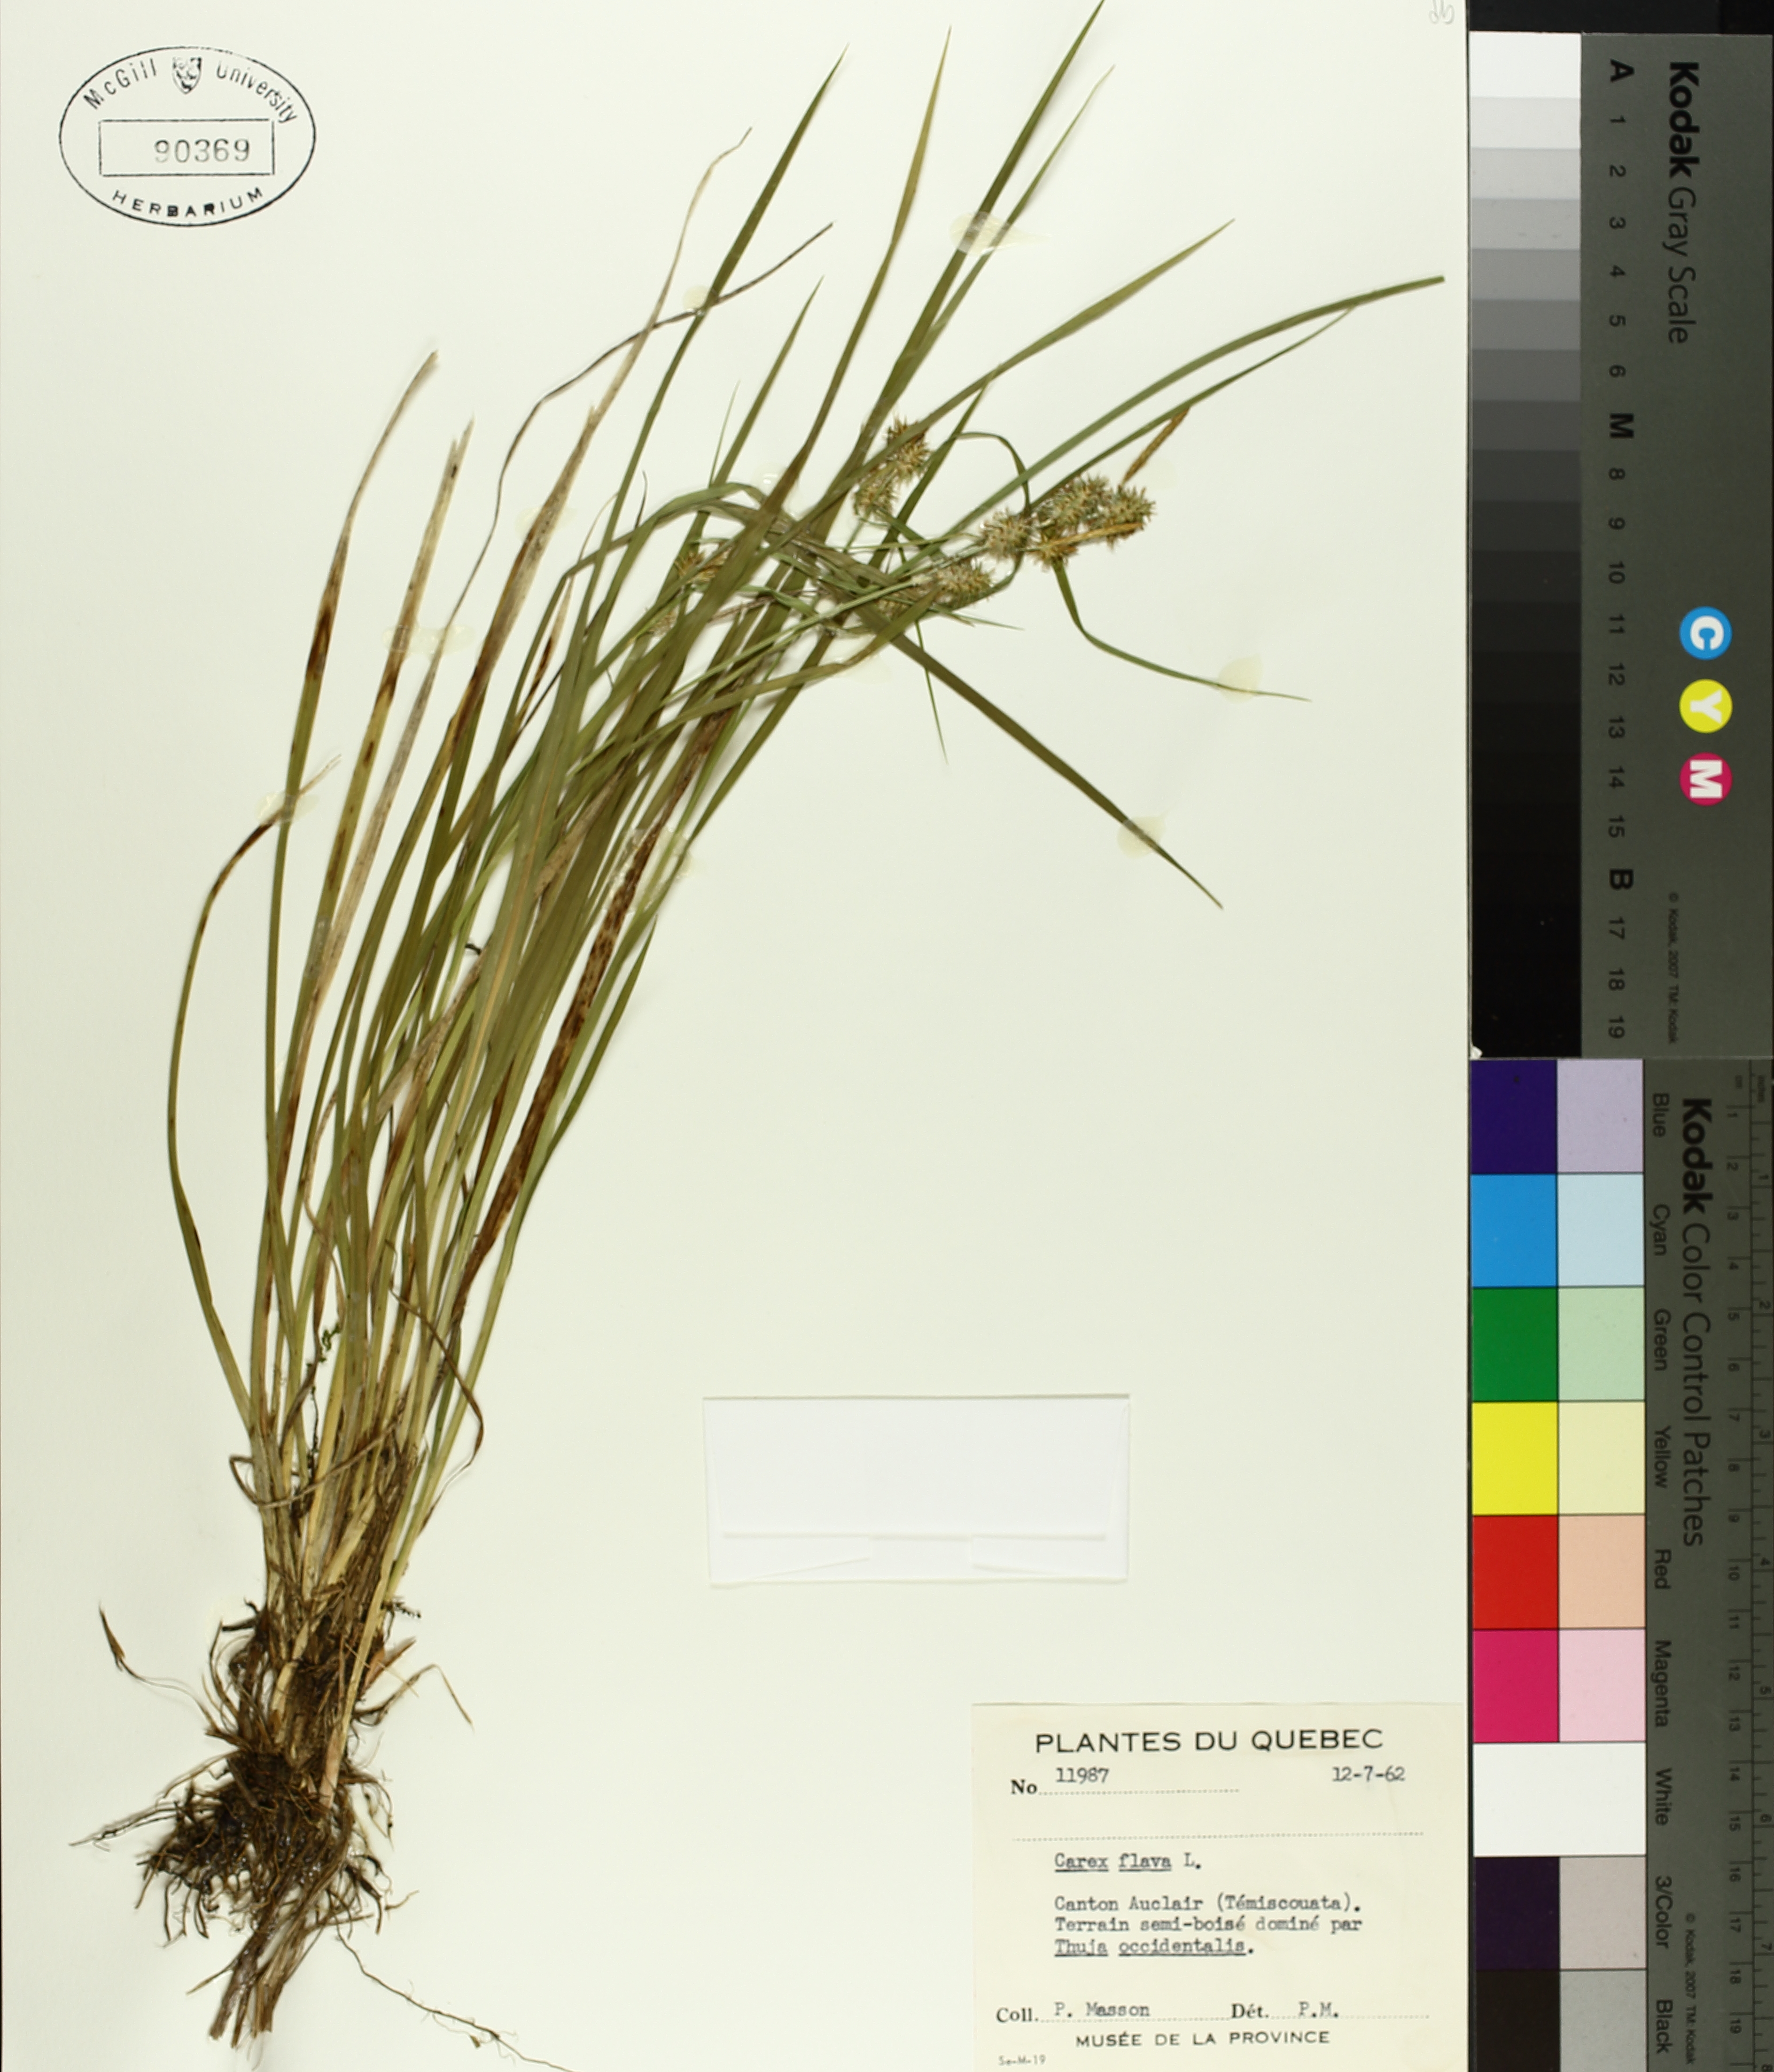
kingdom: Plantae
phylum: Tracheophyta
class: Liliopsida
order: Poales
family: Cyperaceae
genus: Carex
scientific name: Carex flava
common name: Large yellow-sedge
